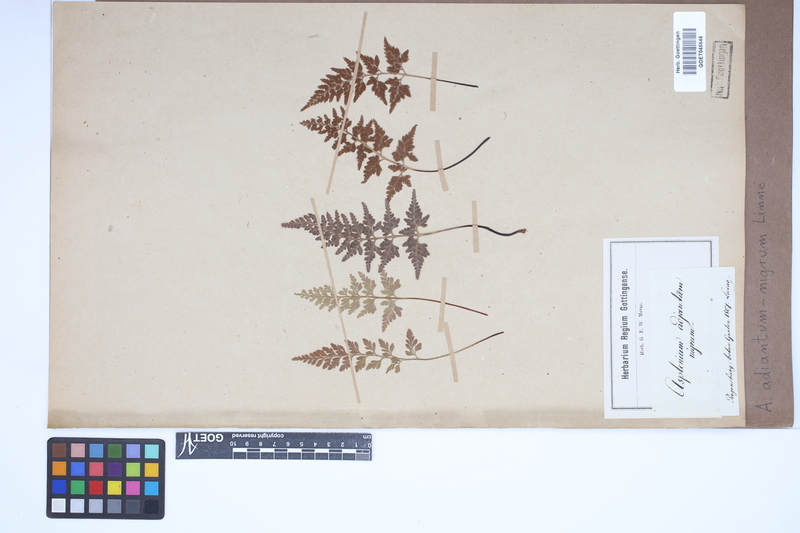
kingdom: Plantae
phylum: Tracheophyta
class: Polypodiopsida
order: Polypodiales
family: Aspleniaceae
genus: Asplenium
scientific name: Asplenium adiantum-nigrum
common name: Black spleenwort
